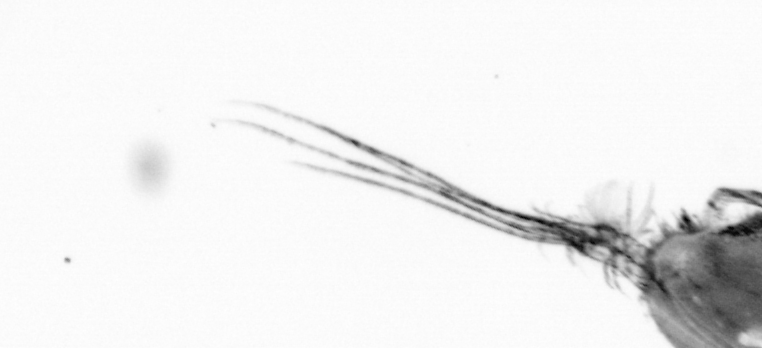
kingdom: Animalia
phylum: Chordata
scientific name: Chordata
